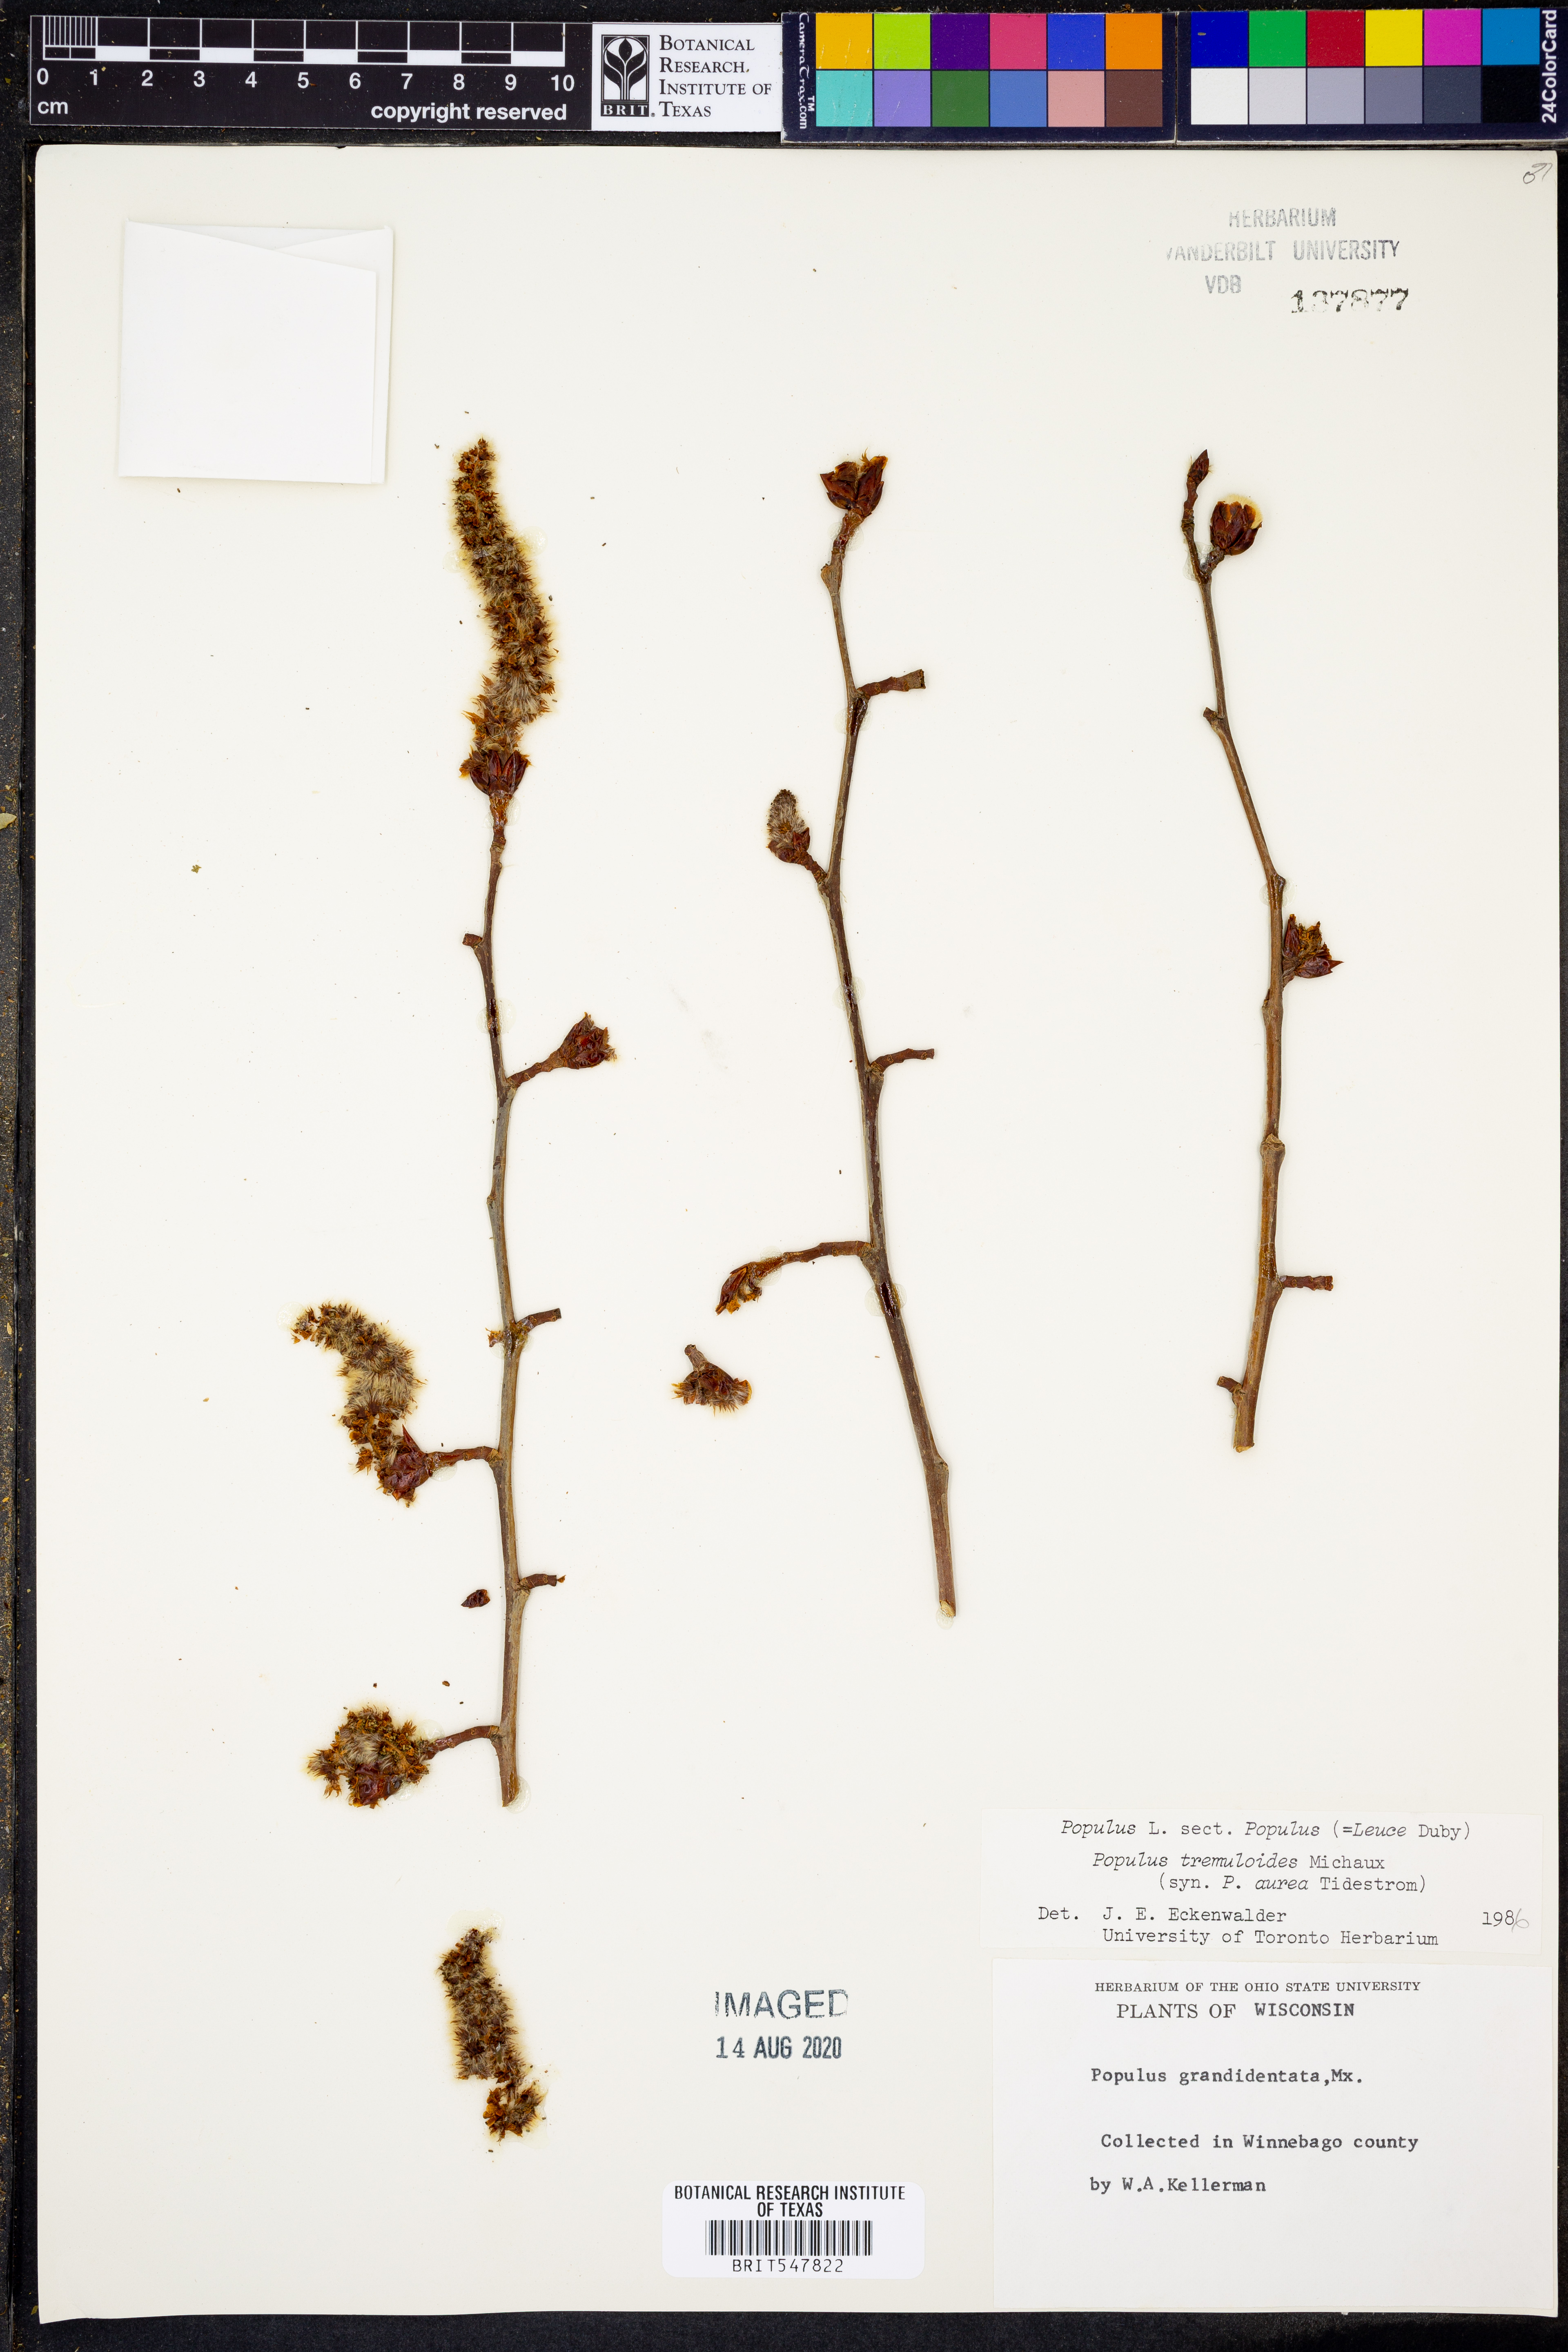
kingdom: Plantae
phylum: Tracheophyta
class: Magnoliopsida
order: Malpighiales
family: Salicaceae
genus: Populus
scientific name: Populus tremuloides
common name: Quaking aspen
